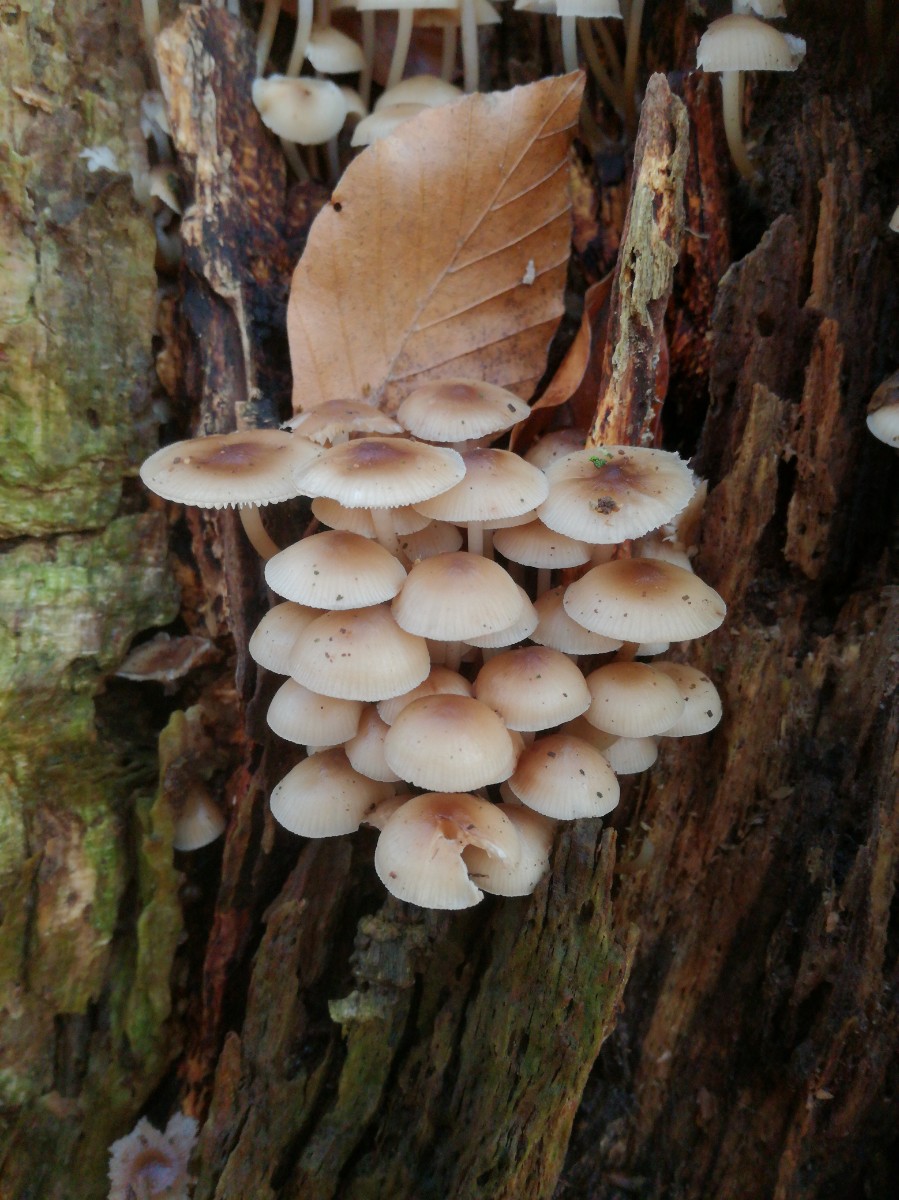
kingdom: Fungi
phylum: Basidiomycota
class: Agaricomycetes
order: Agaricales
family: Mycenaceae
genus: Mycena
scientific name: Mycena tintinnabulum
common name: vinter-huesvamp
